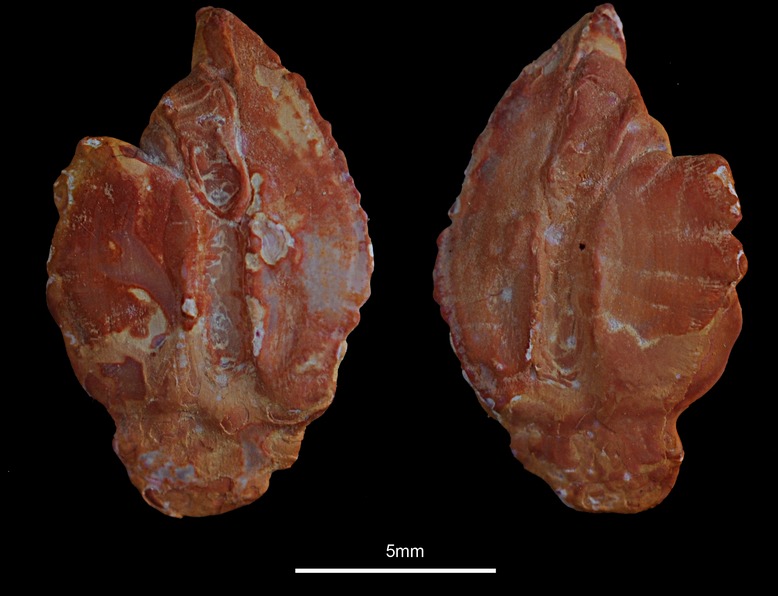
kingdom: Animalia
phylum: Chordata
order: Scorpaeniformes
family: Sebastidae
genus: Sebastes
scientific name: Sebastes mentella
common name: Deepwater redfish
